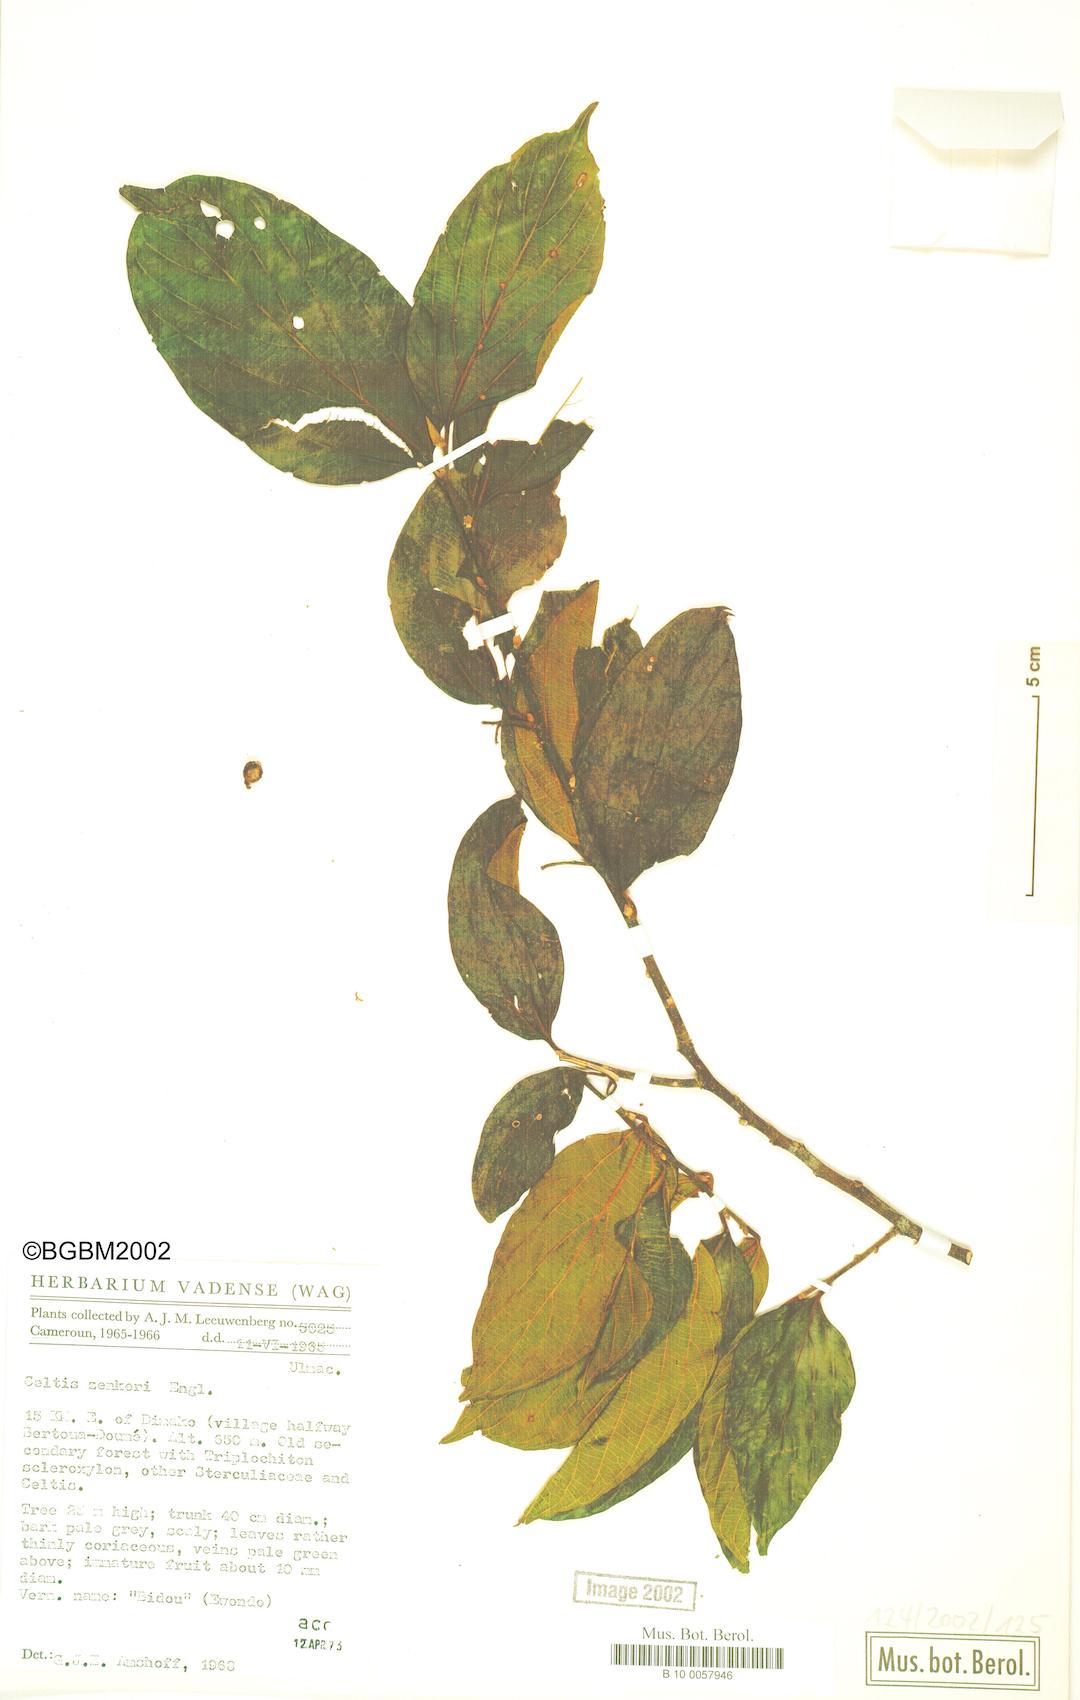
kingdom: Plantae
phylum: Tracheophyta
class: Magnoliopsida
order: Rosales
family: Cannabaceae
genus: Celtis
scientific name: Celtis zenkeri
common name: African celtis
